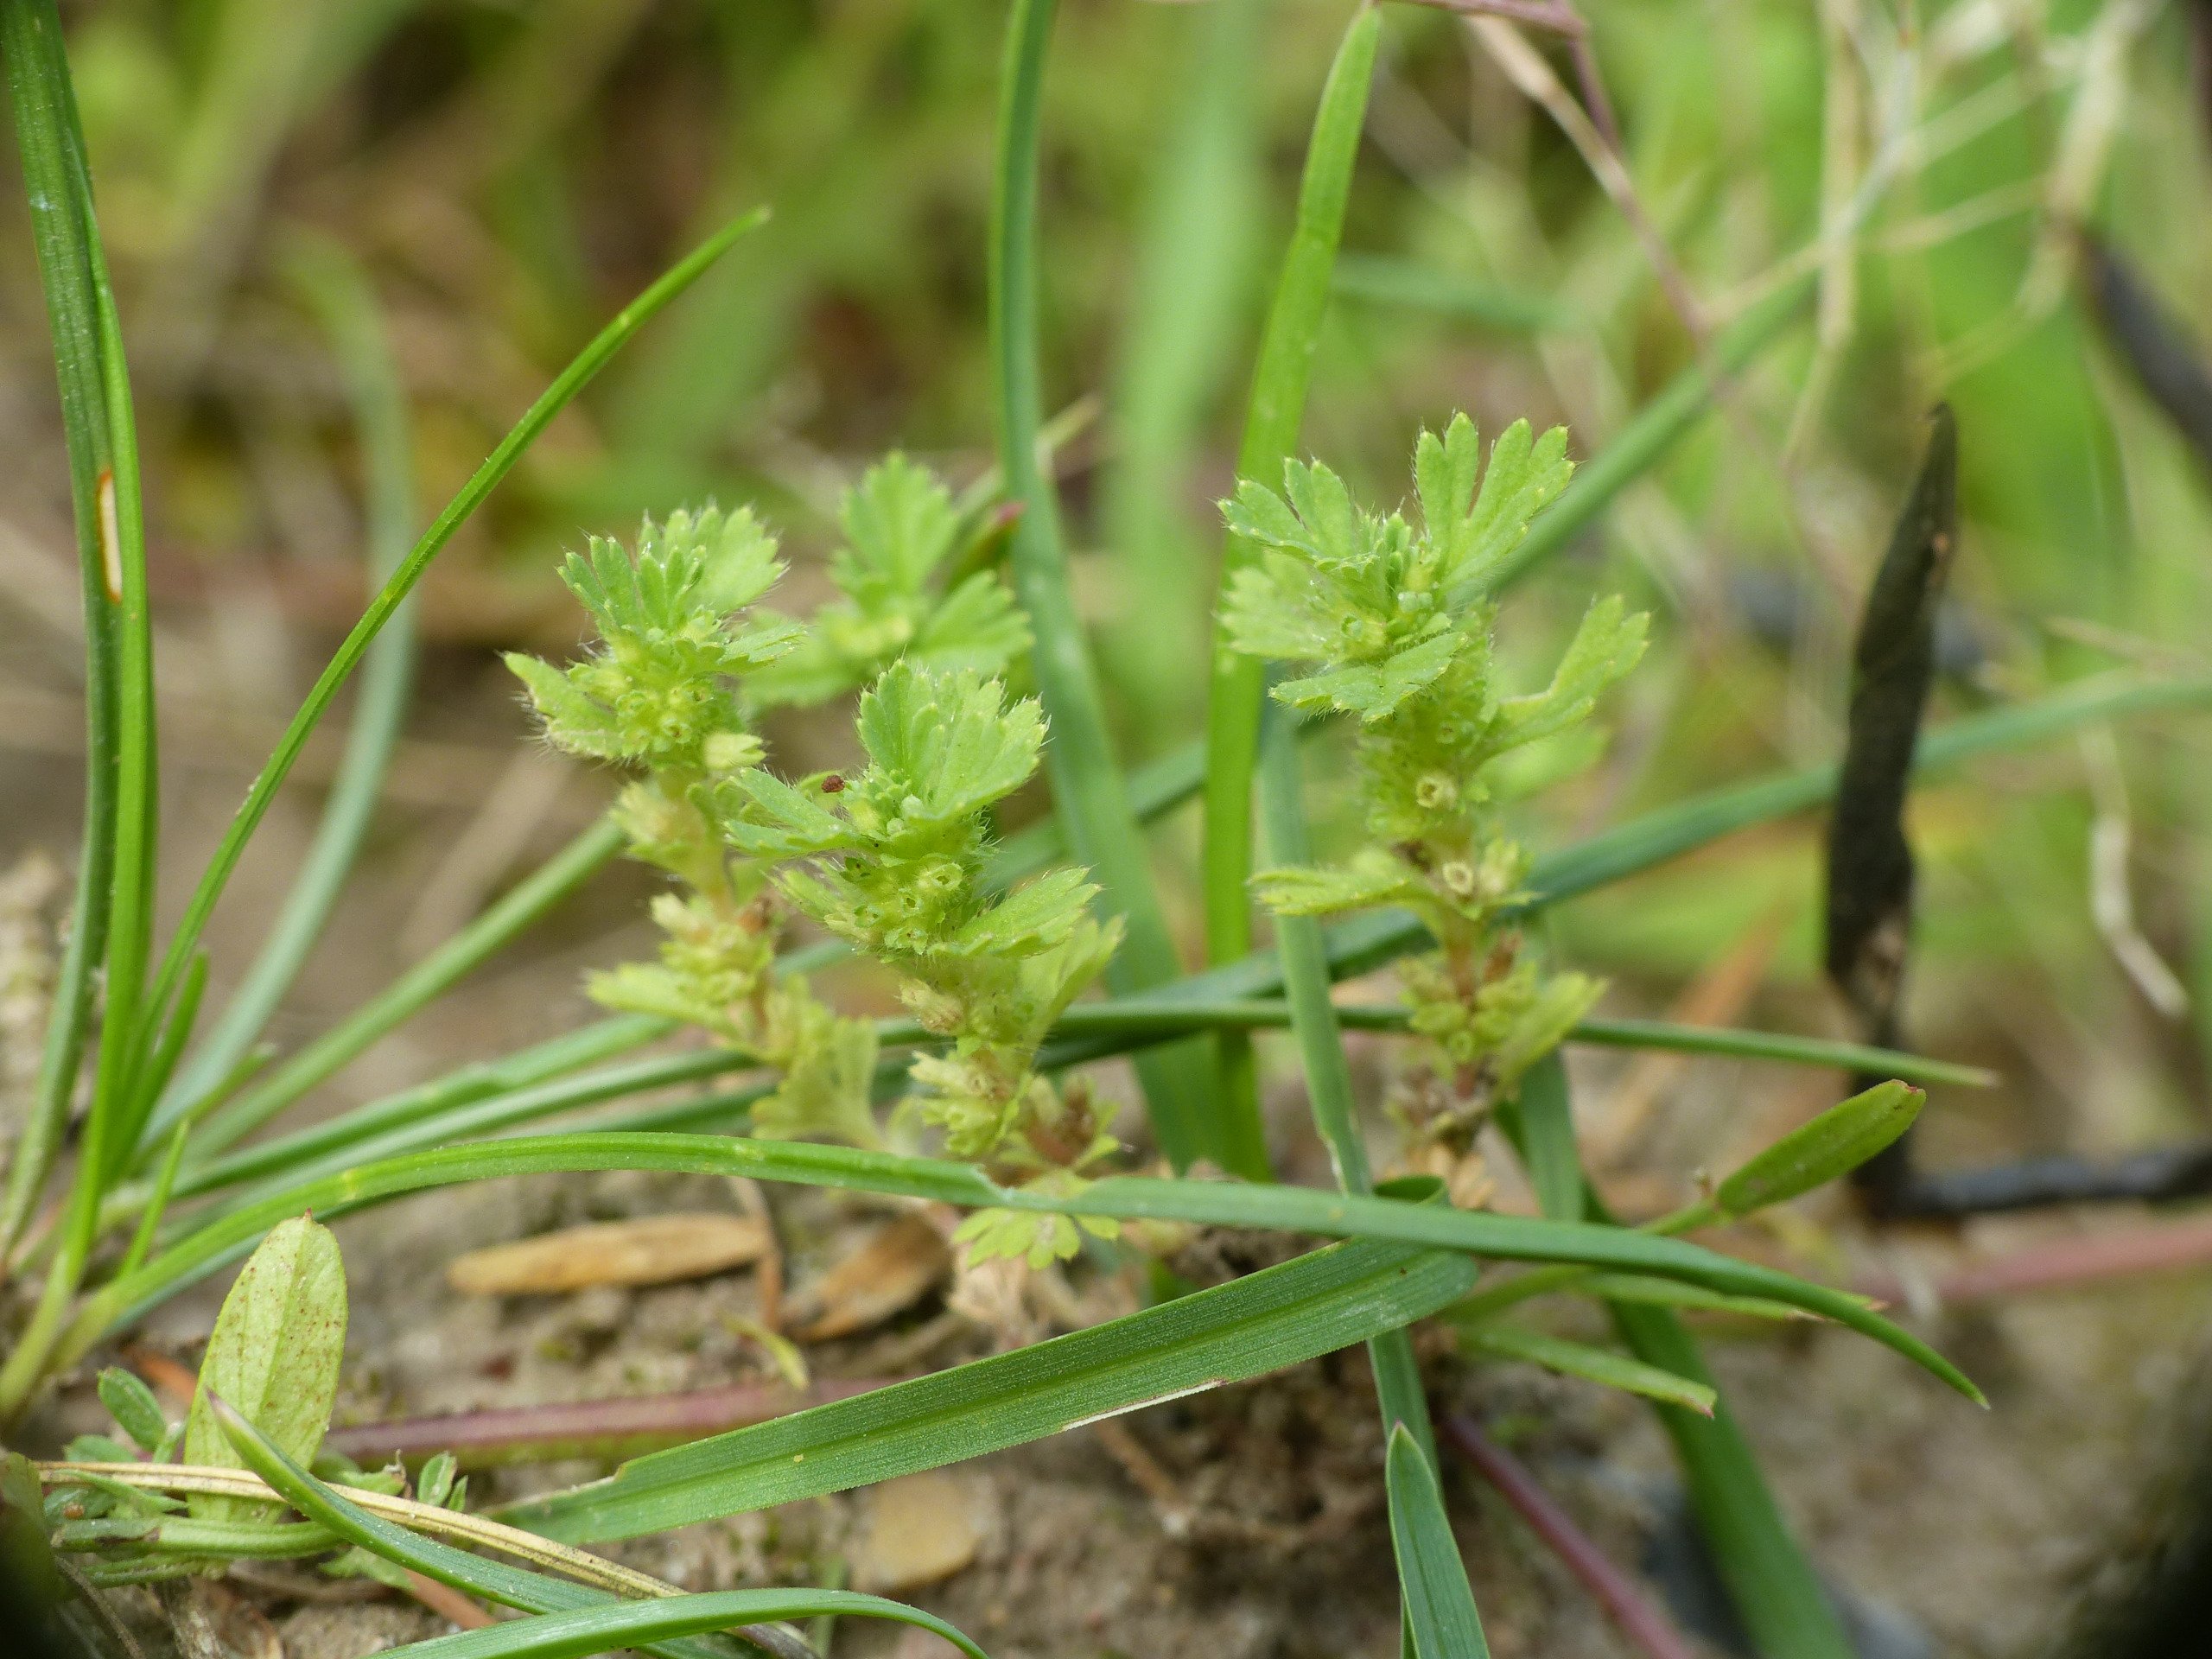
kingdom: Plantae
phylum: Tracheophyta
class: Magnoliopsida
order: Rosales
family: Rosaceae
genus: Aphanes
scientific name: Aphanes arvensis
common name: Dværgløvefod
